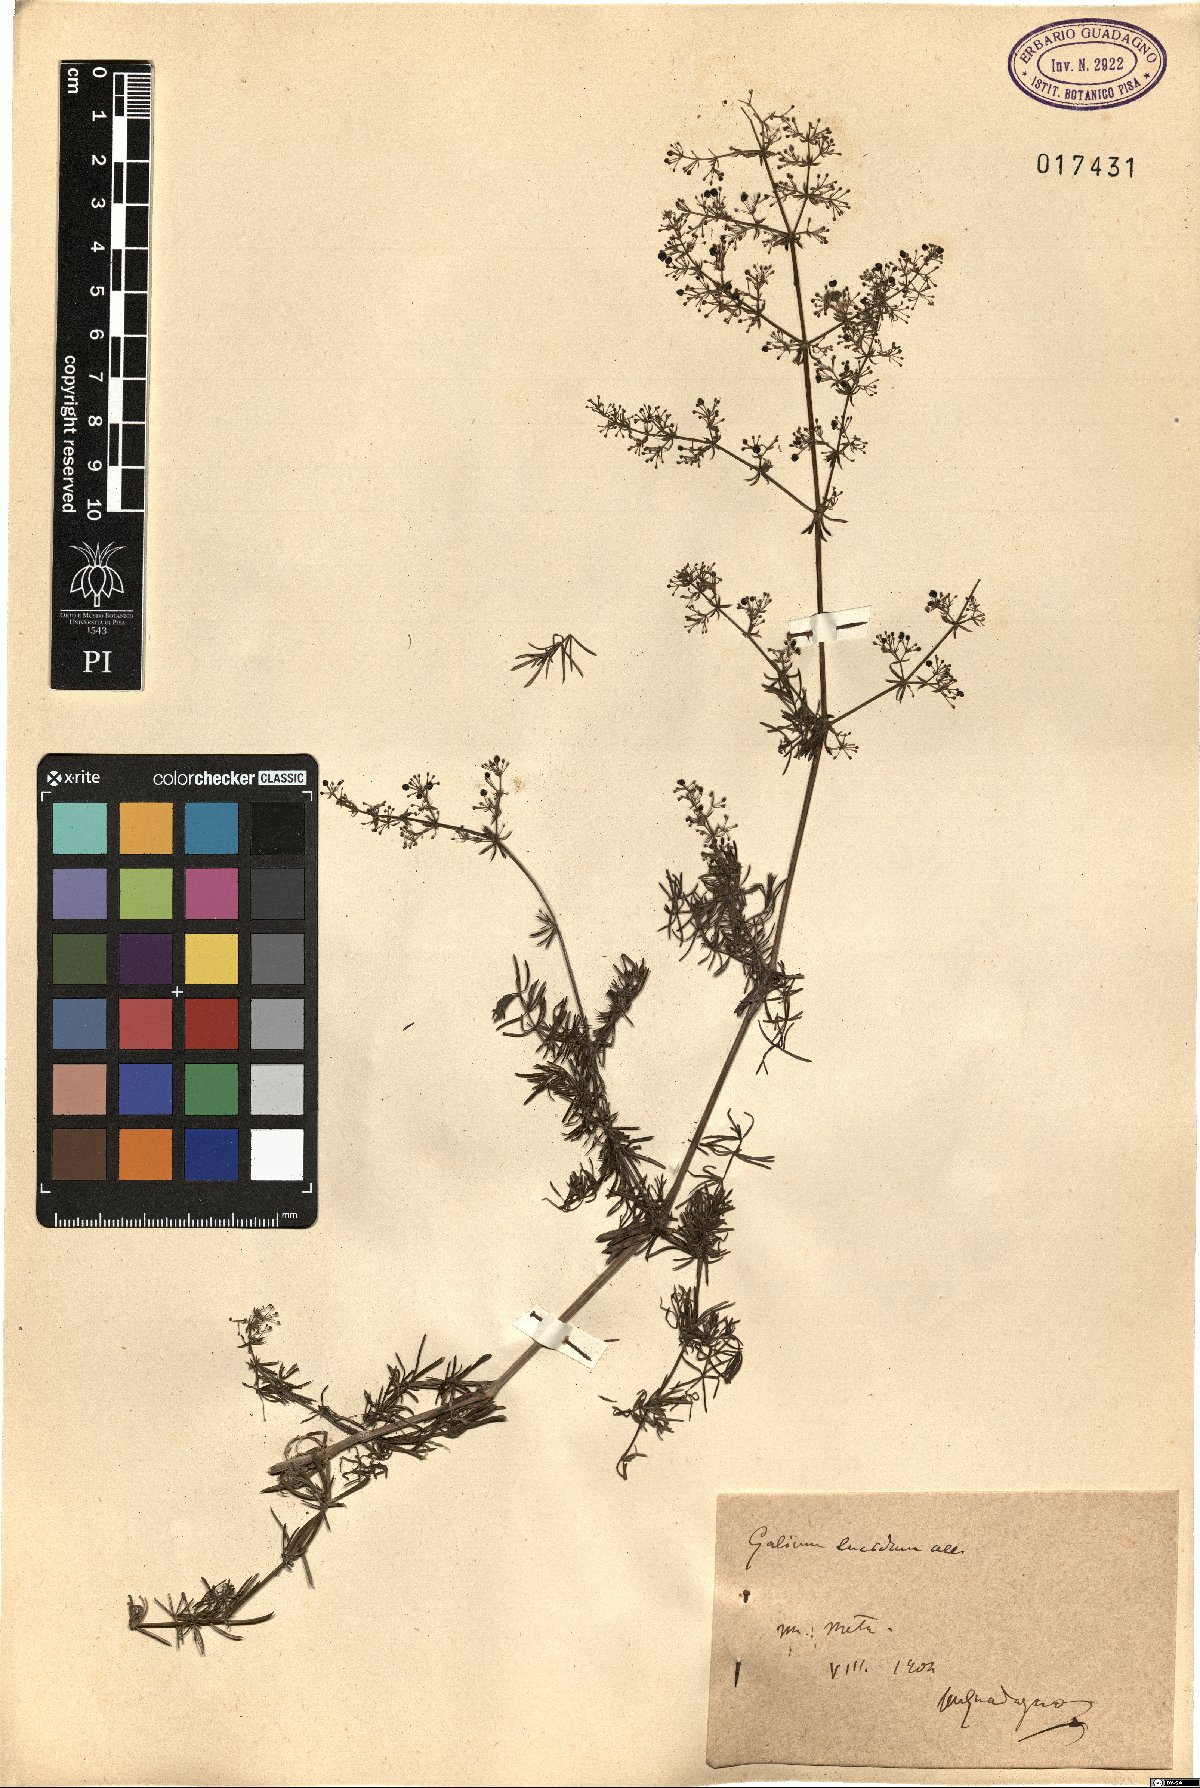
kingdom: Plantae
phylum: Tracheophyta
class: Magnoliopsida
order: Gentianales
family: Rubiaceae
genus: Galium
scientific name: Galium lucidum
